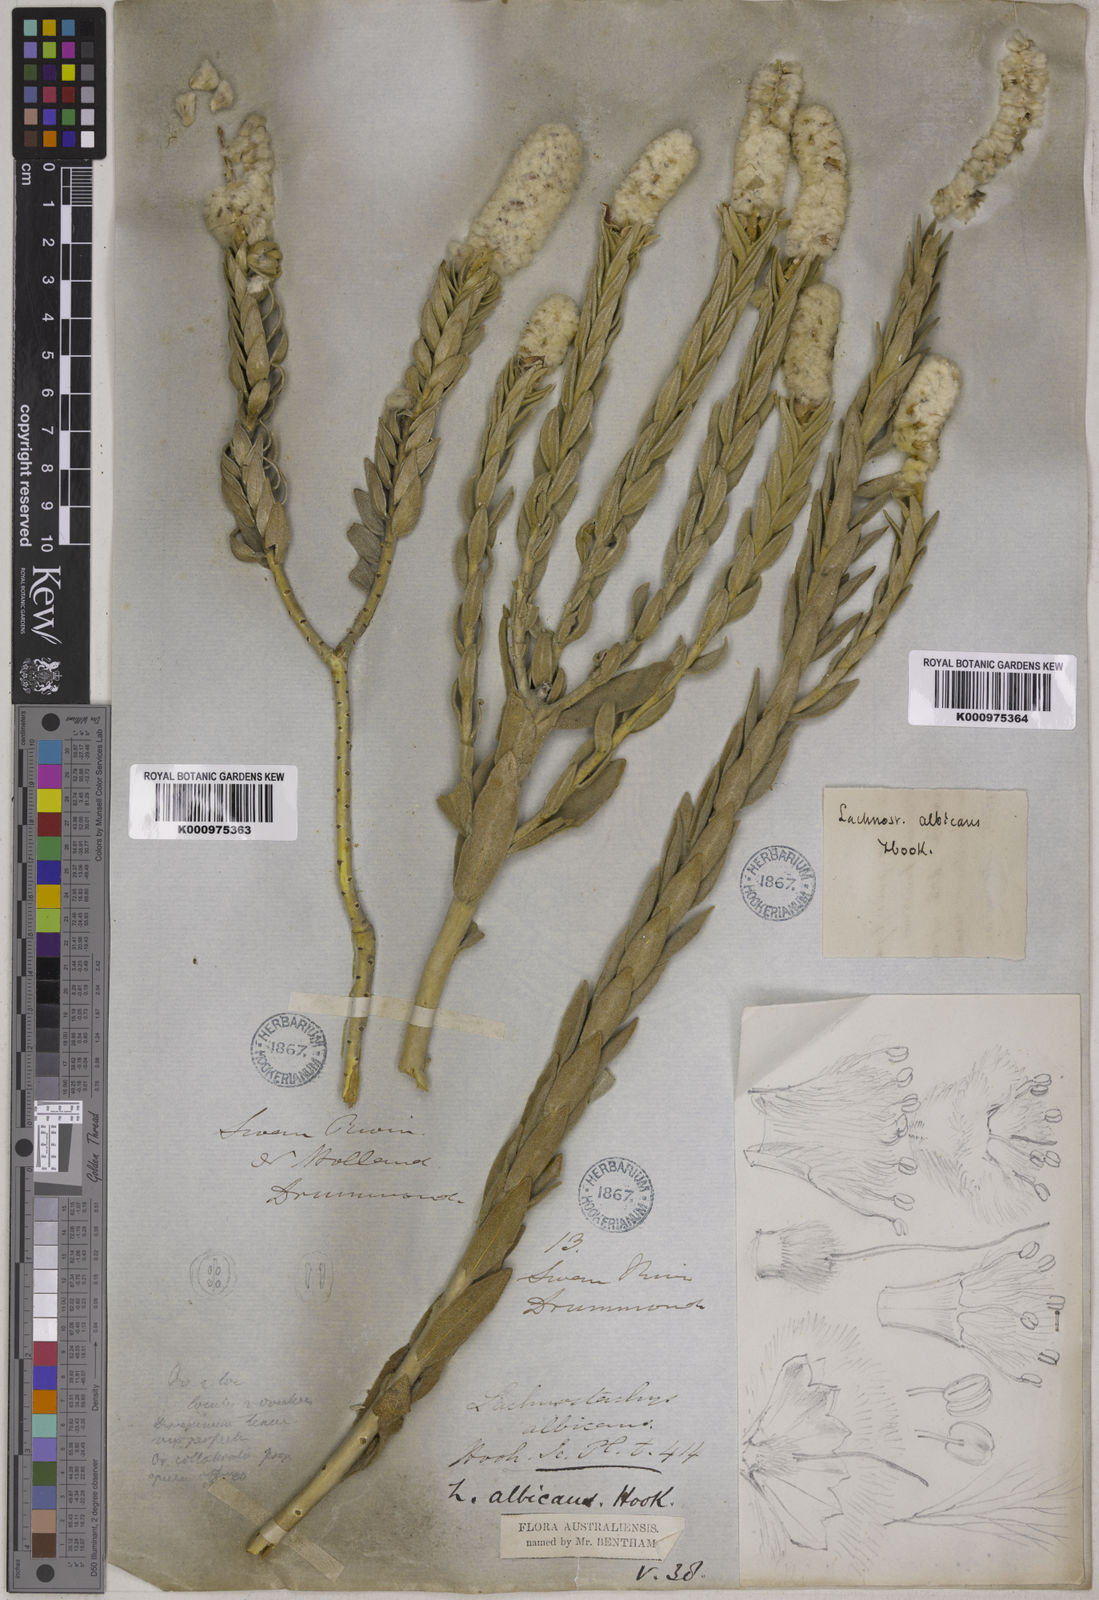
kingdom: Plantae
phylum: Tracheophyta
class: Magnoliopsida
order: Lamiales
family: Lamiaceae
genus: Apatelantha
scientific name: Apatelantha albicans
